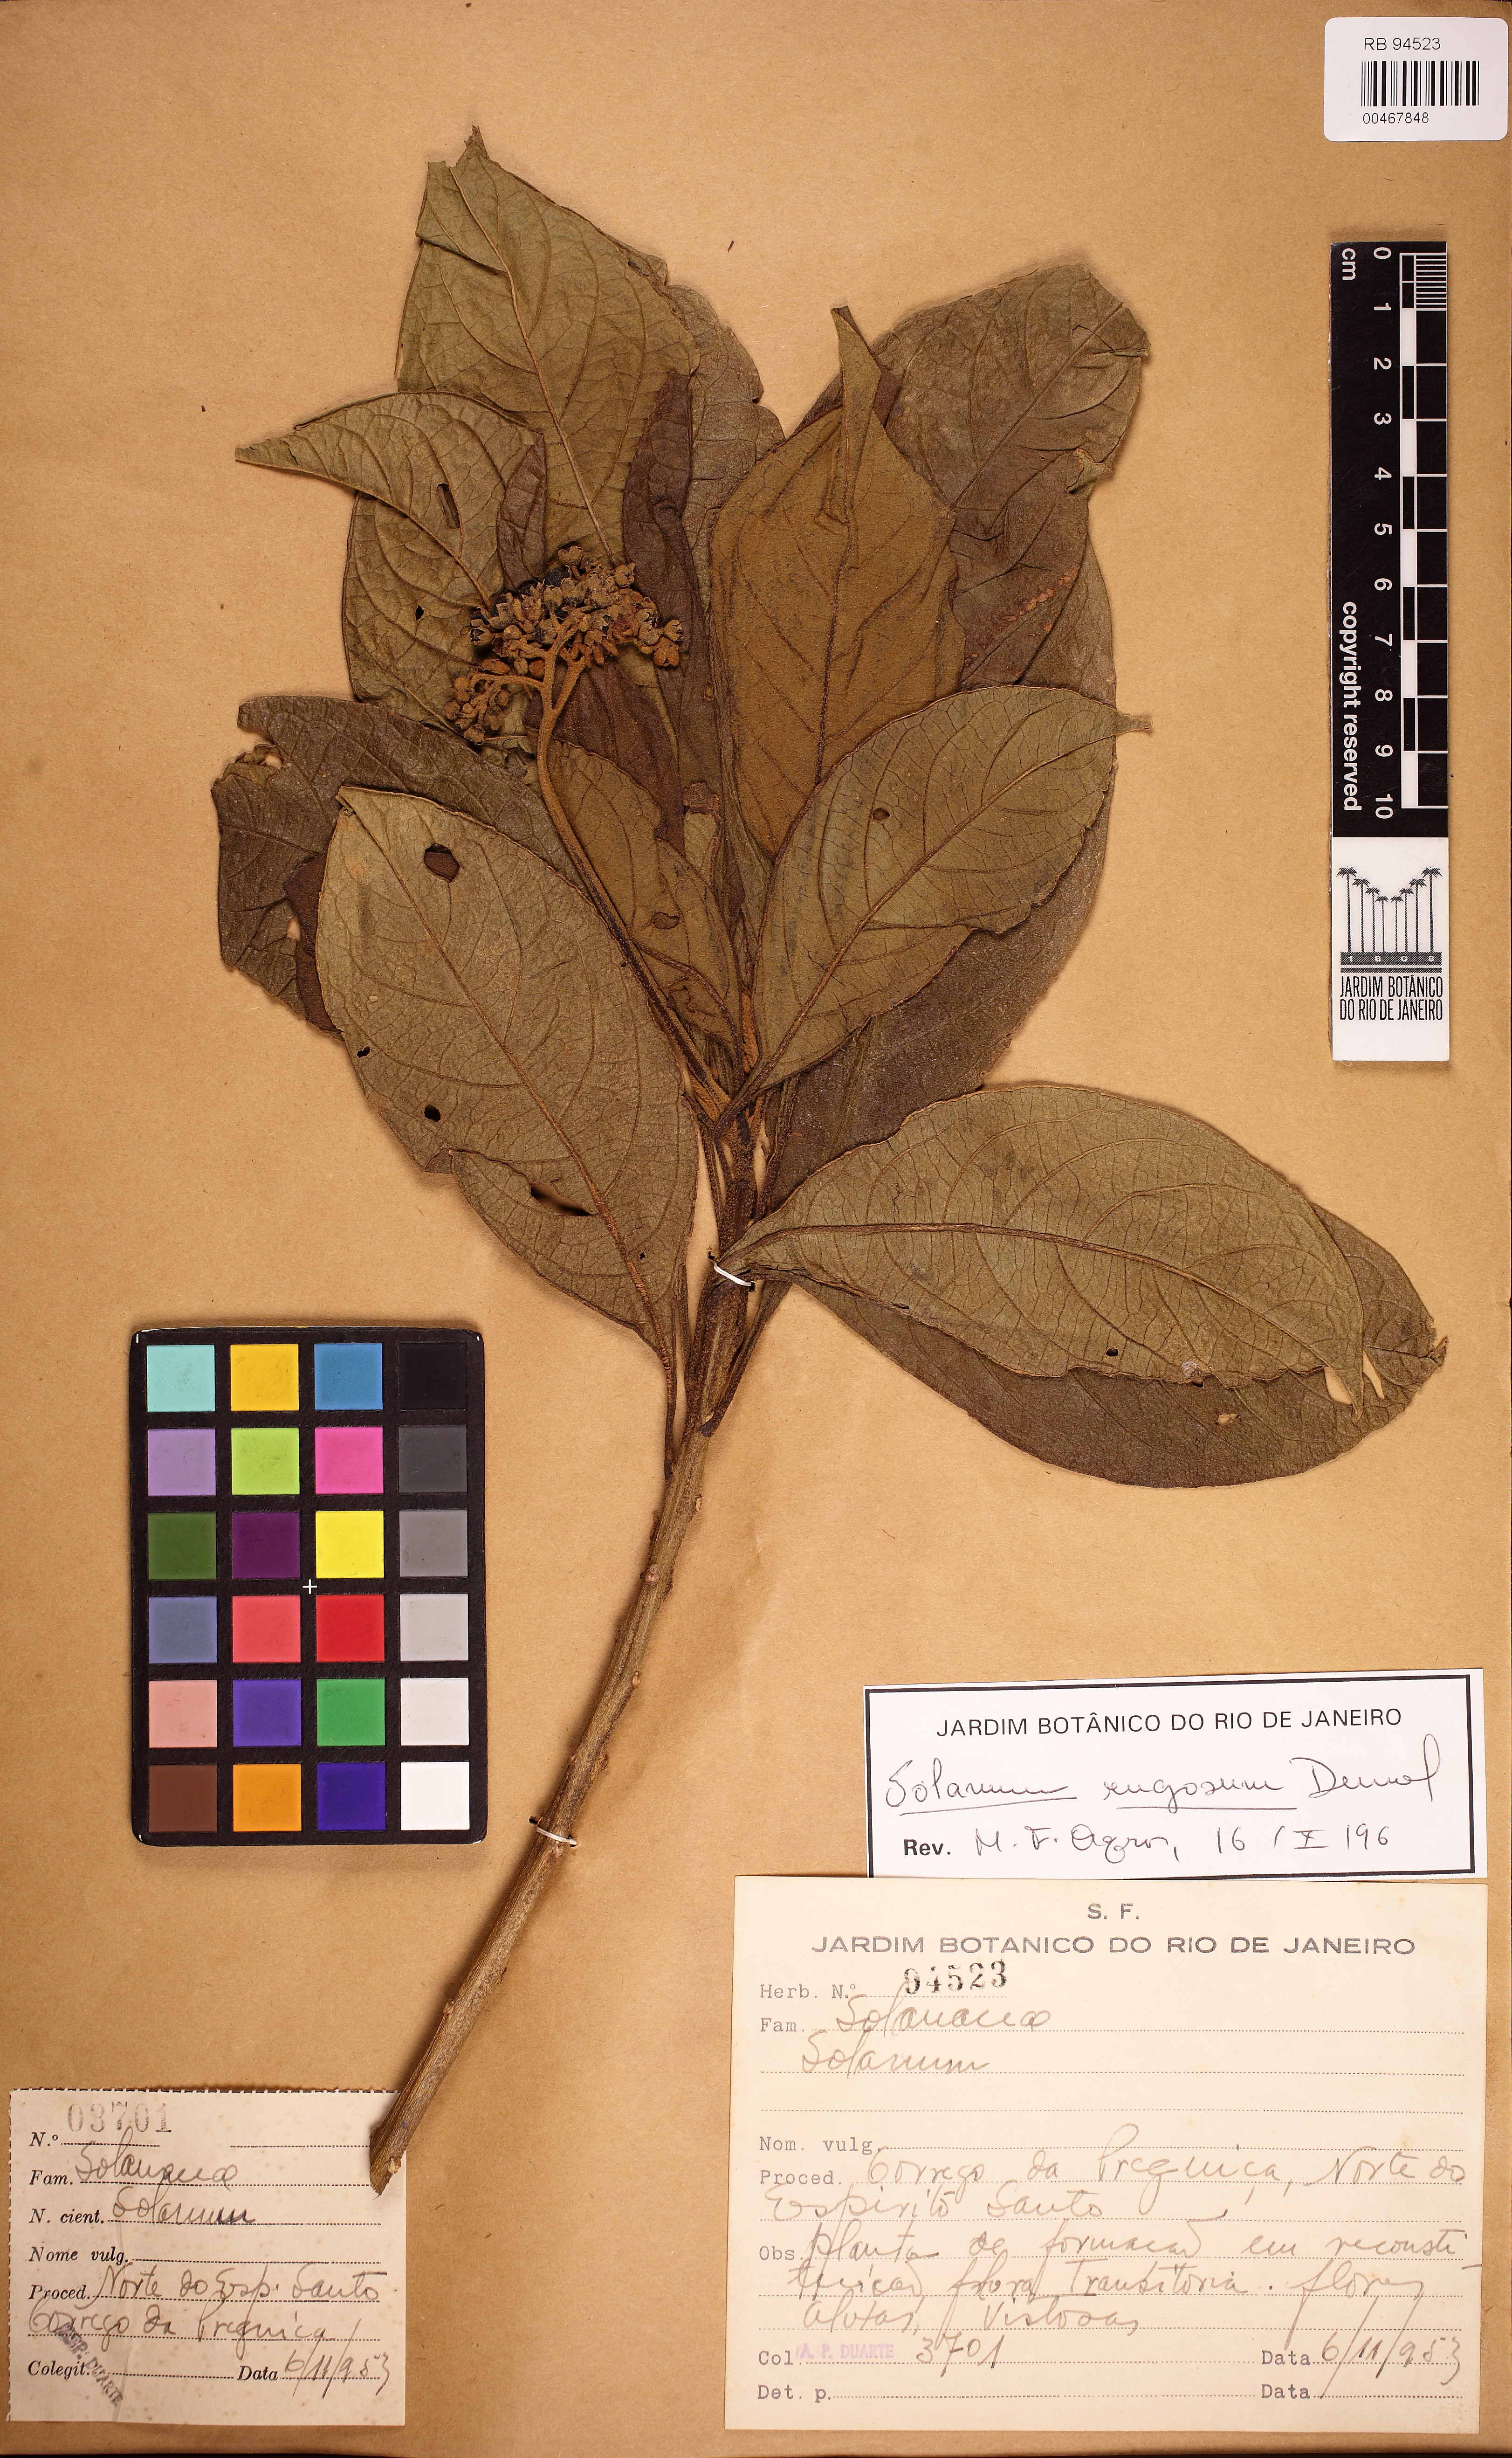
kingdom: Plantae
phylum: Tracheophyta
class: Magnoliopsida
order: Solanales
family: Solanaceae
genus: Solanum
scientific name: Solanum rugosum
